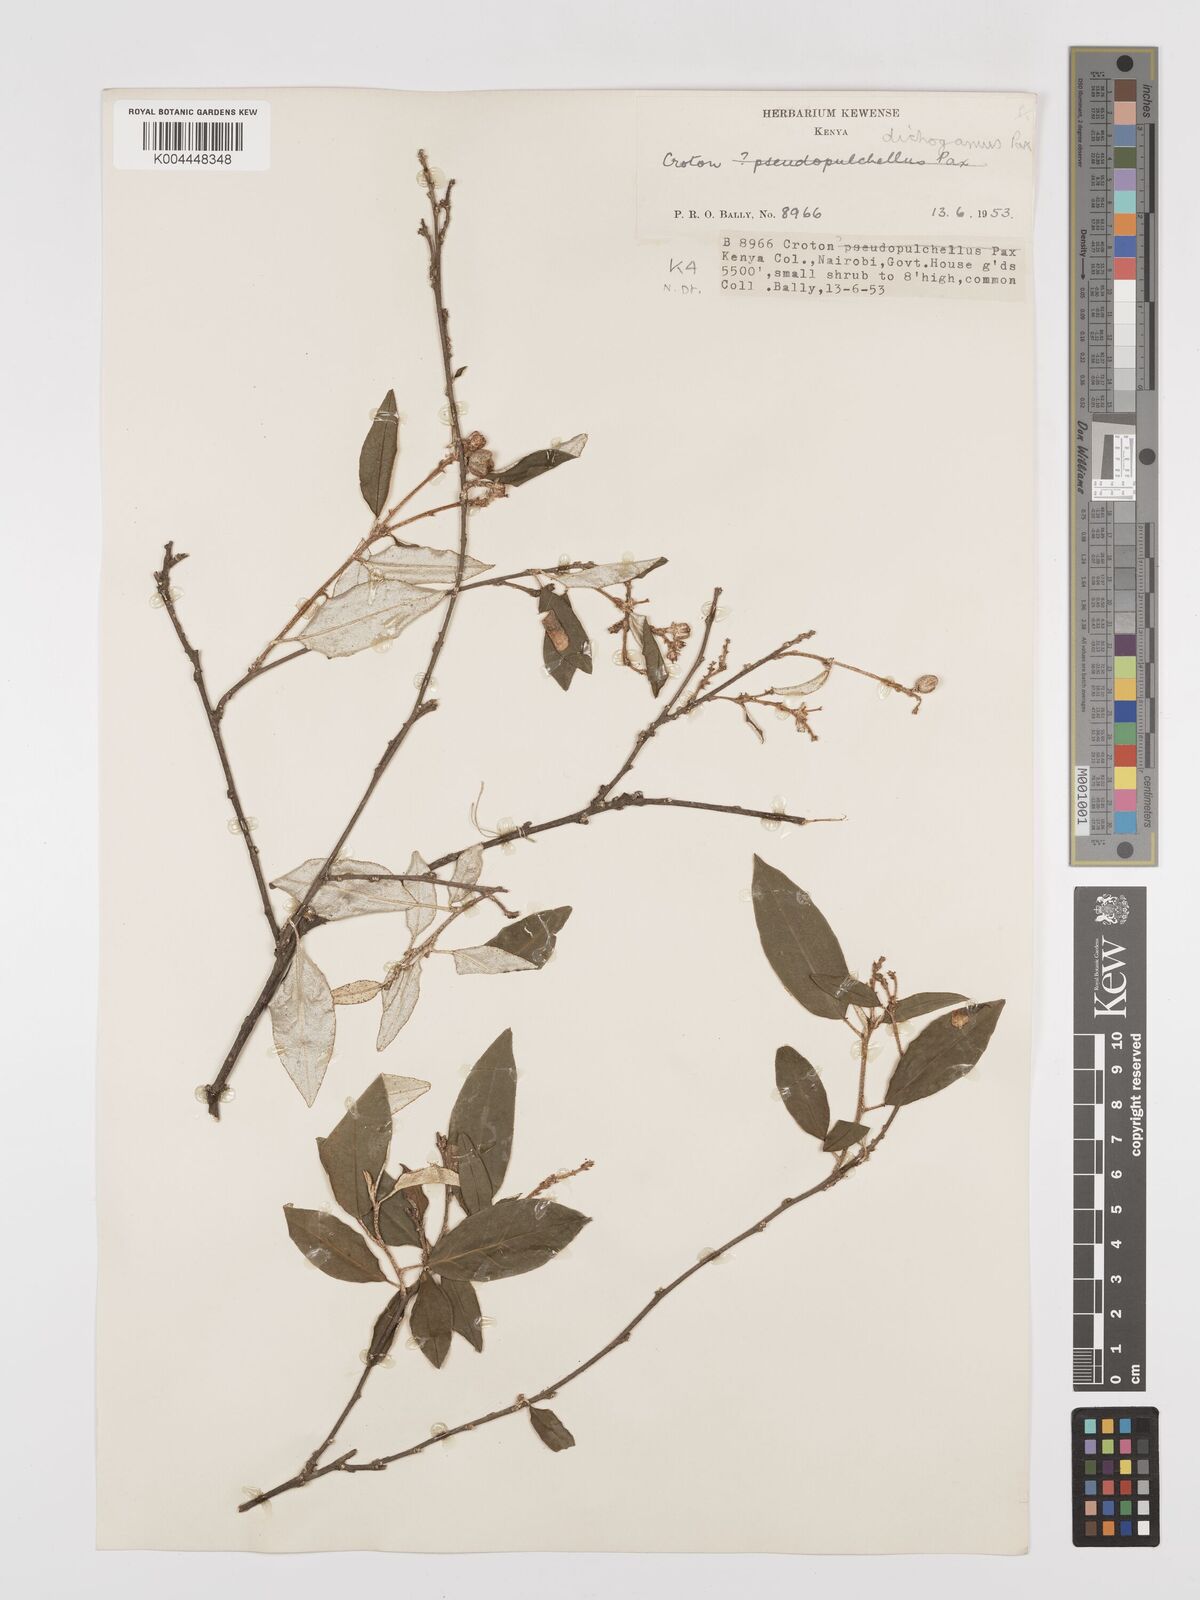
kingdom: Plantae
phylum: Tracheophyta
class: Magnoliopsida
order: Malpighiales
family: Euphorbiaceae
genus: Croton
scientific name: Croton dichogamus
